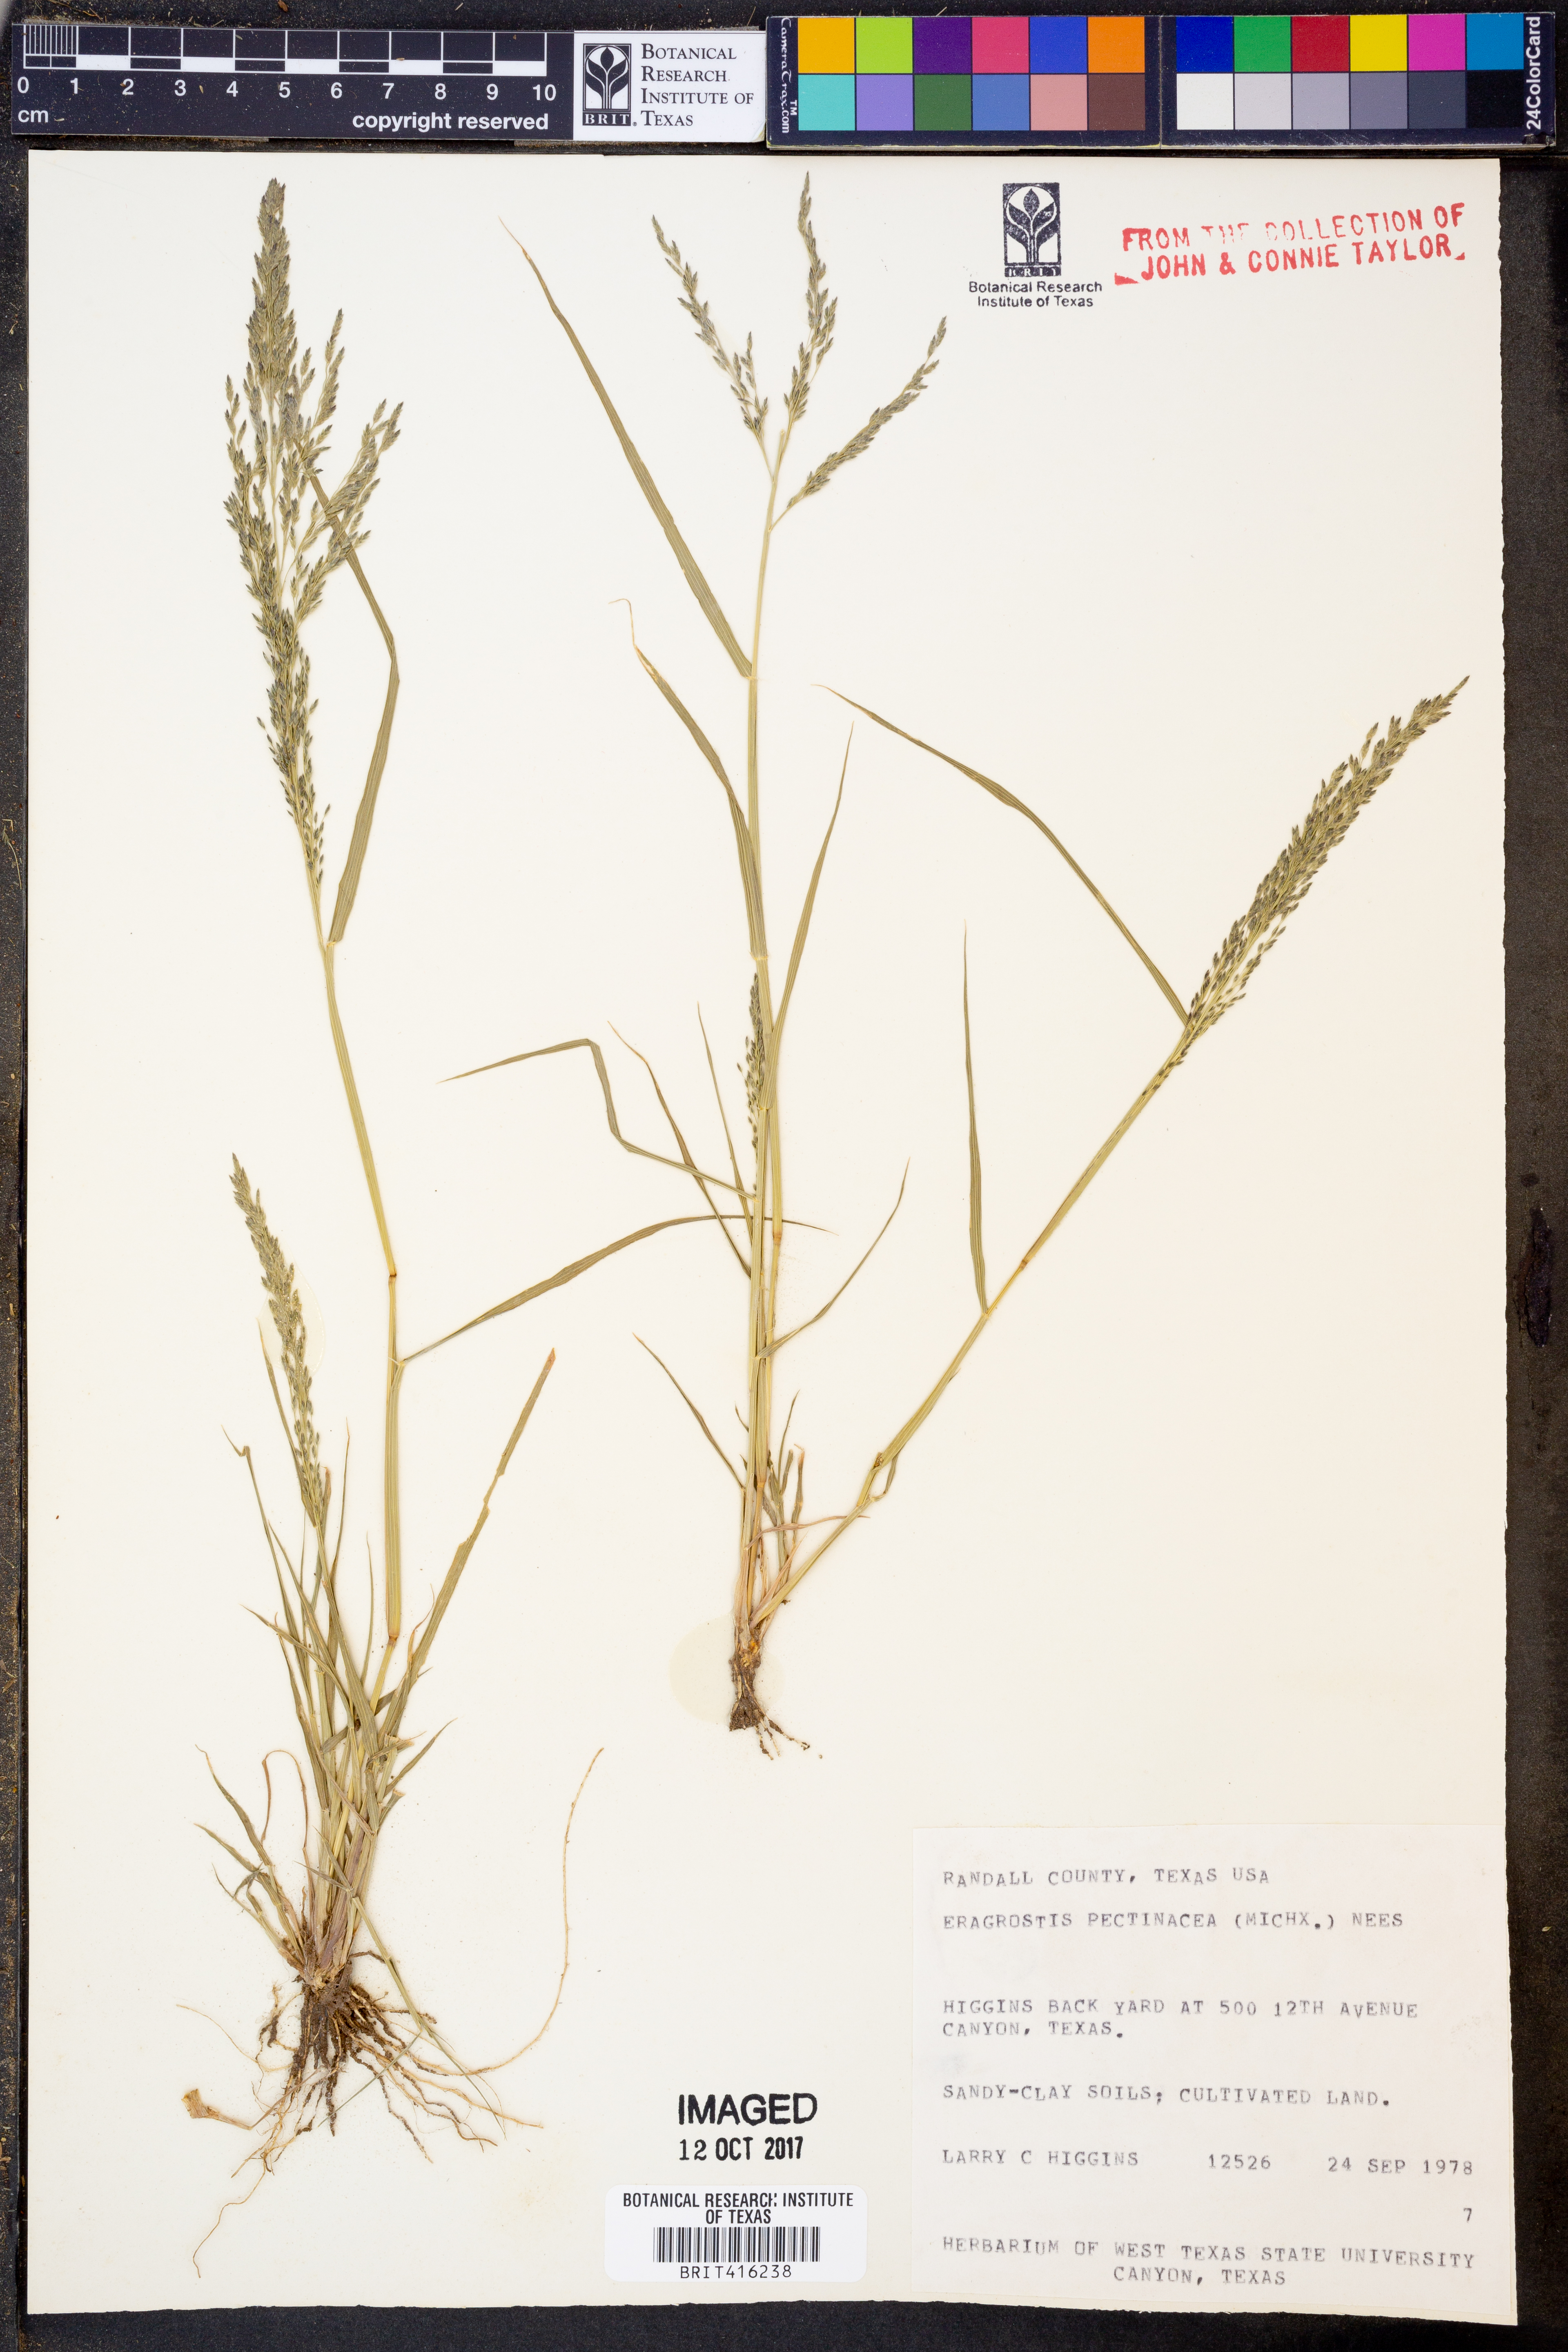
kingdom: Plantae
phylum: Tracheophyta
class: Liliopsida
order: Poales
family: Poaceae
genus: Eragrostis
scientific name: Eragrostis pectinacea
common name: Tufted lovegrass
